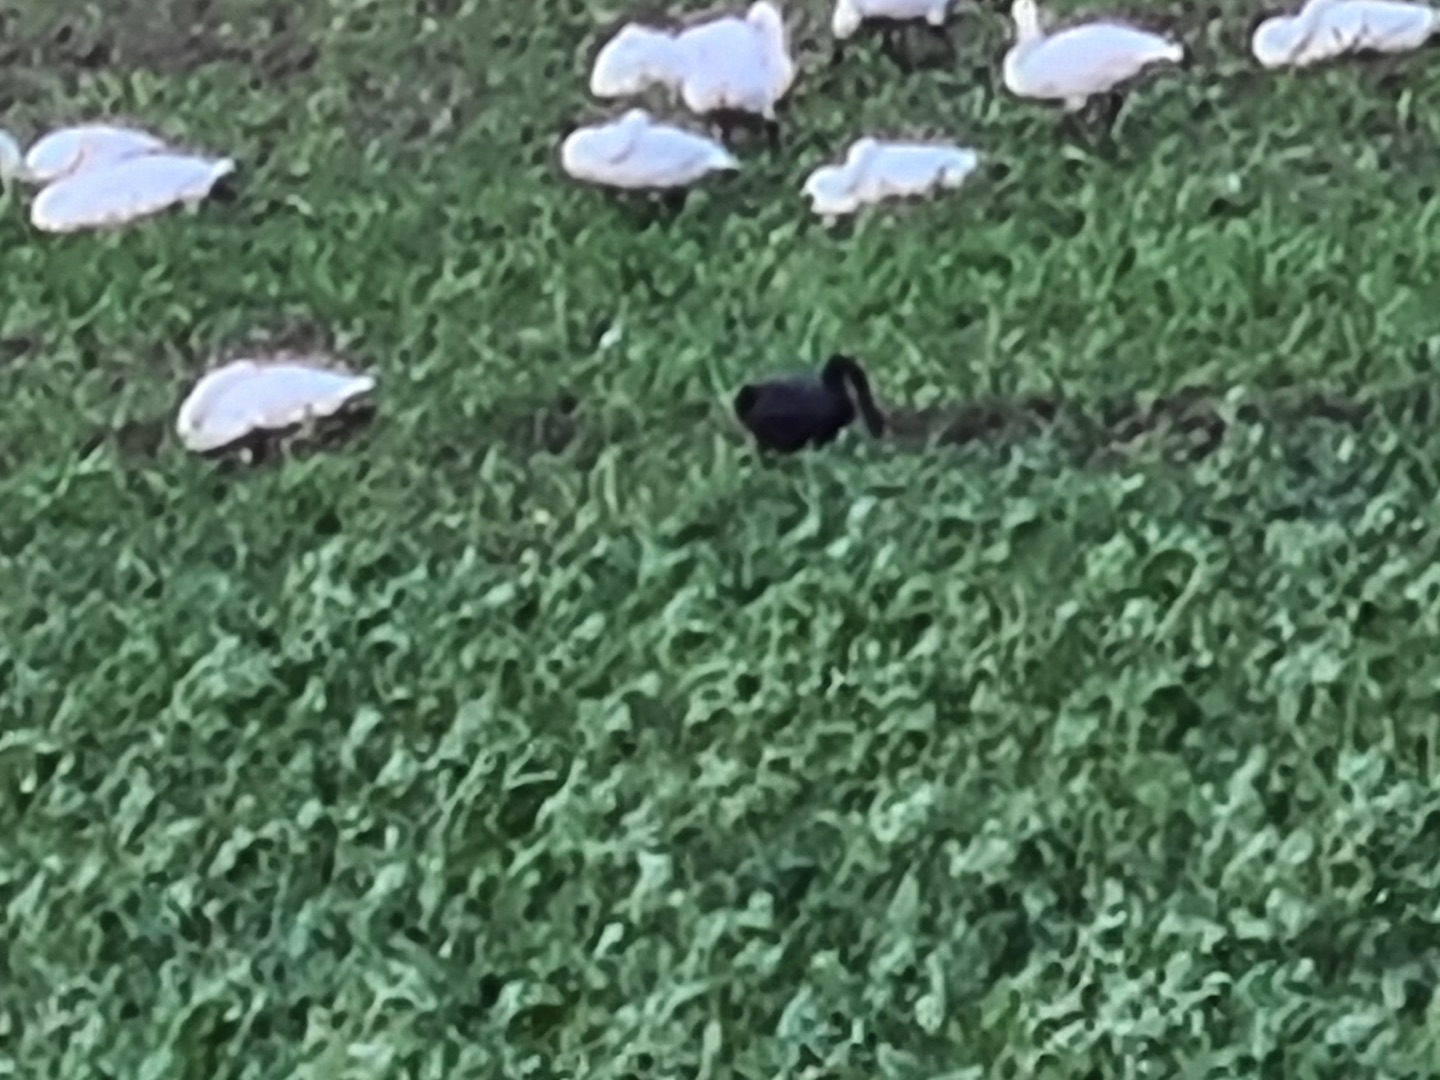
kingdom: Animalia
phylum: Chordata
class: Aves
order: Anseriformes
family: Anatidae
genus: Cygnus
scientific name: Cygnus atratus
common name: Sortsvane
